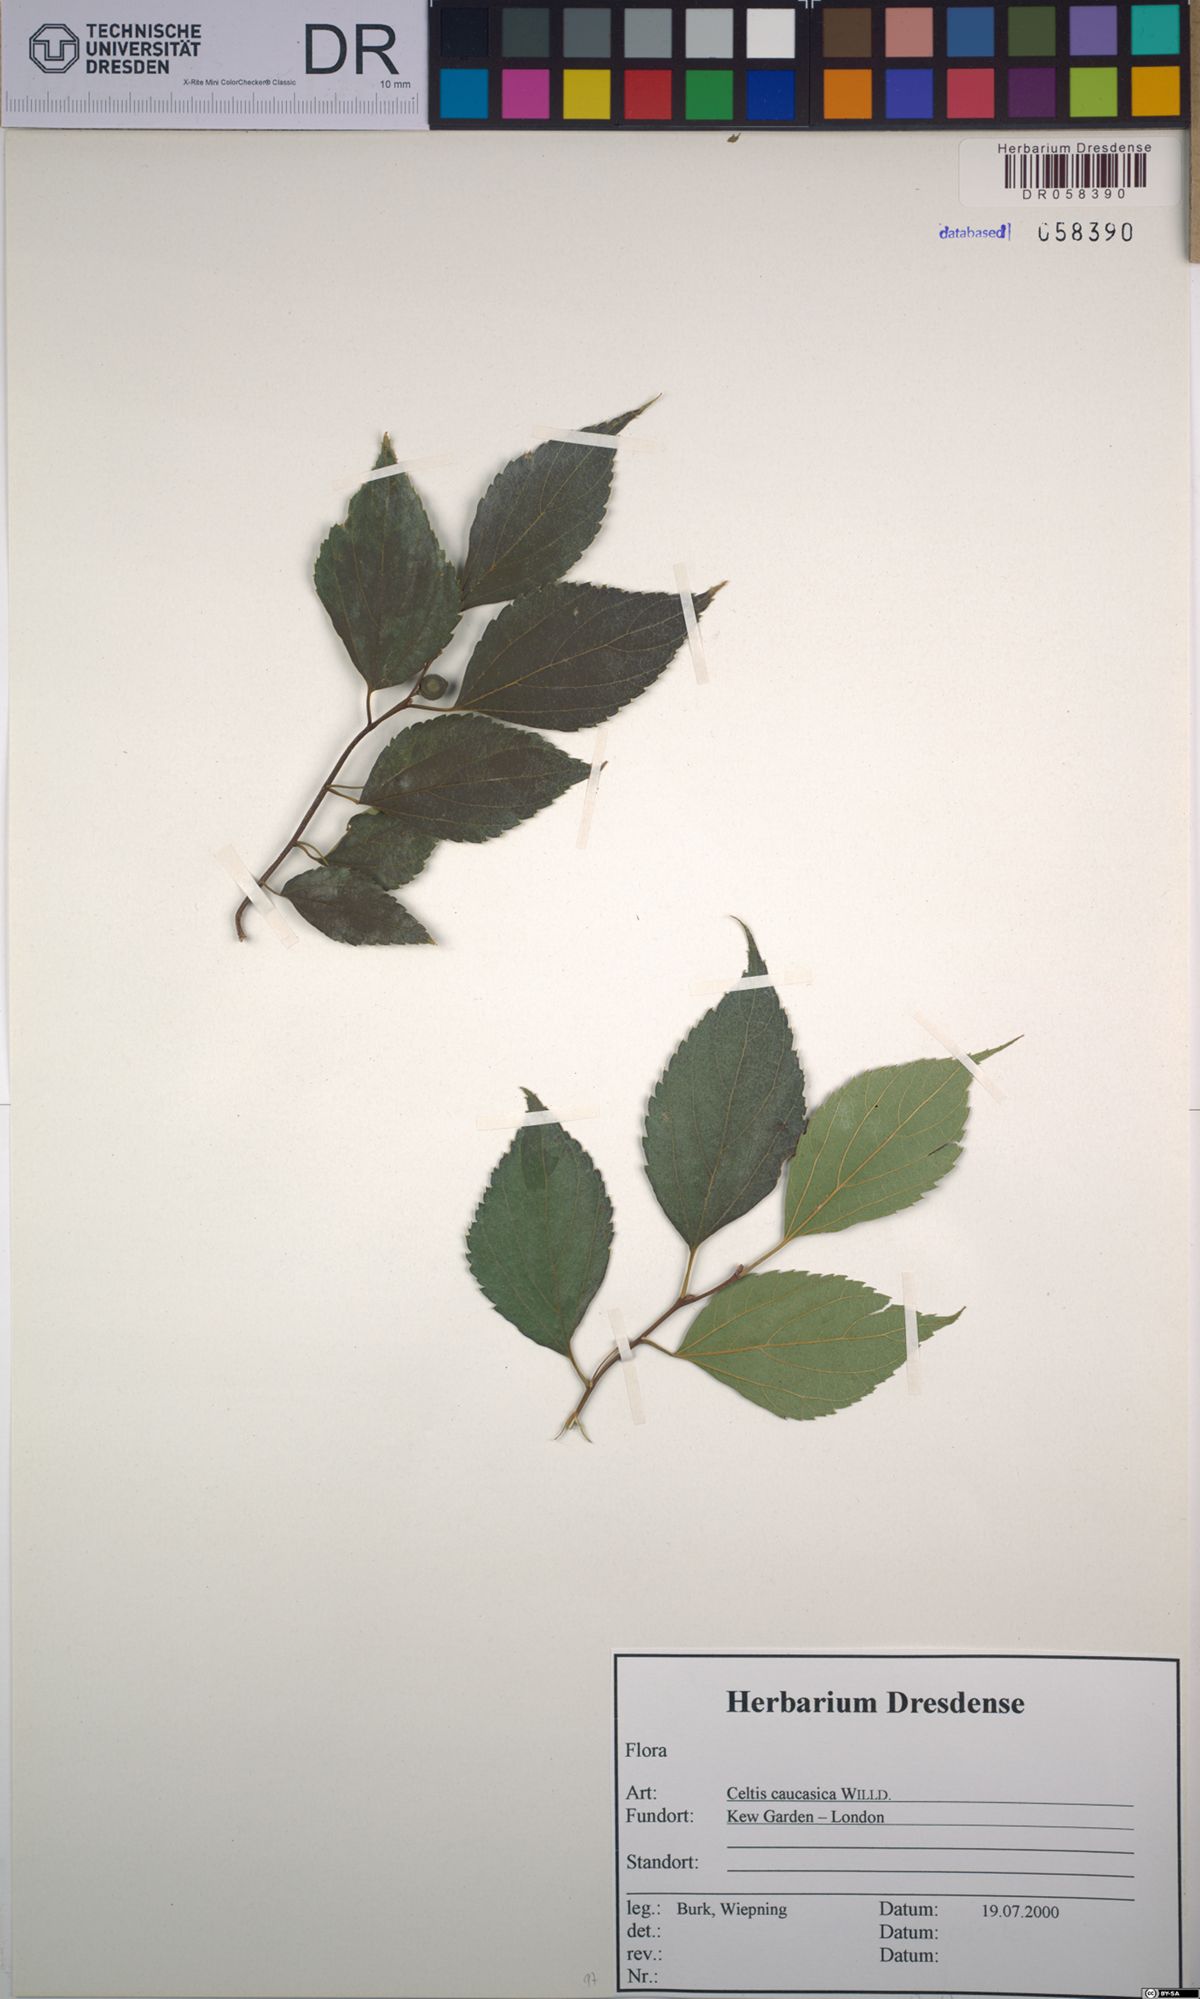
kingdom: Plantae
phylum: Tracheophyta
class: Magnoliopsida
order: Rosales
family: Cannabaceae
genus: Celtis
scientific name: Celtis caucasica
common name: Caucasian hackberry
